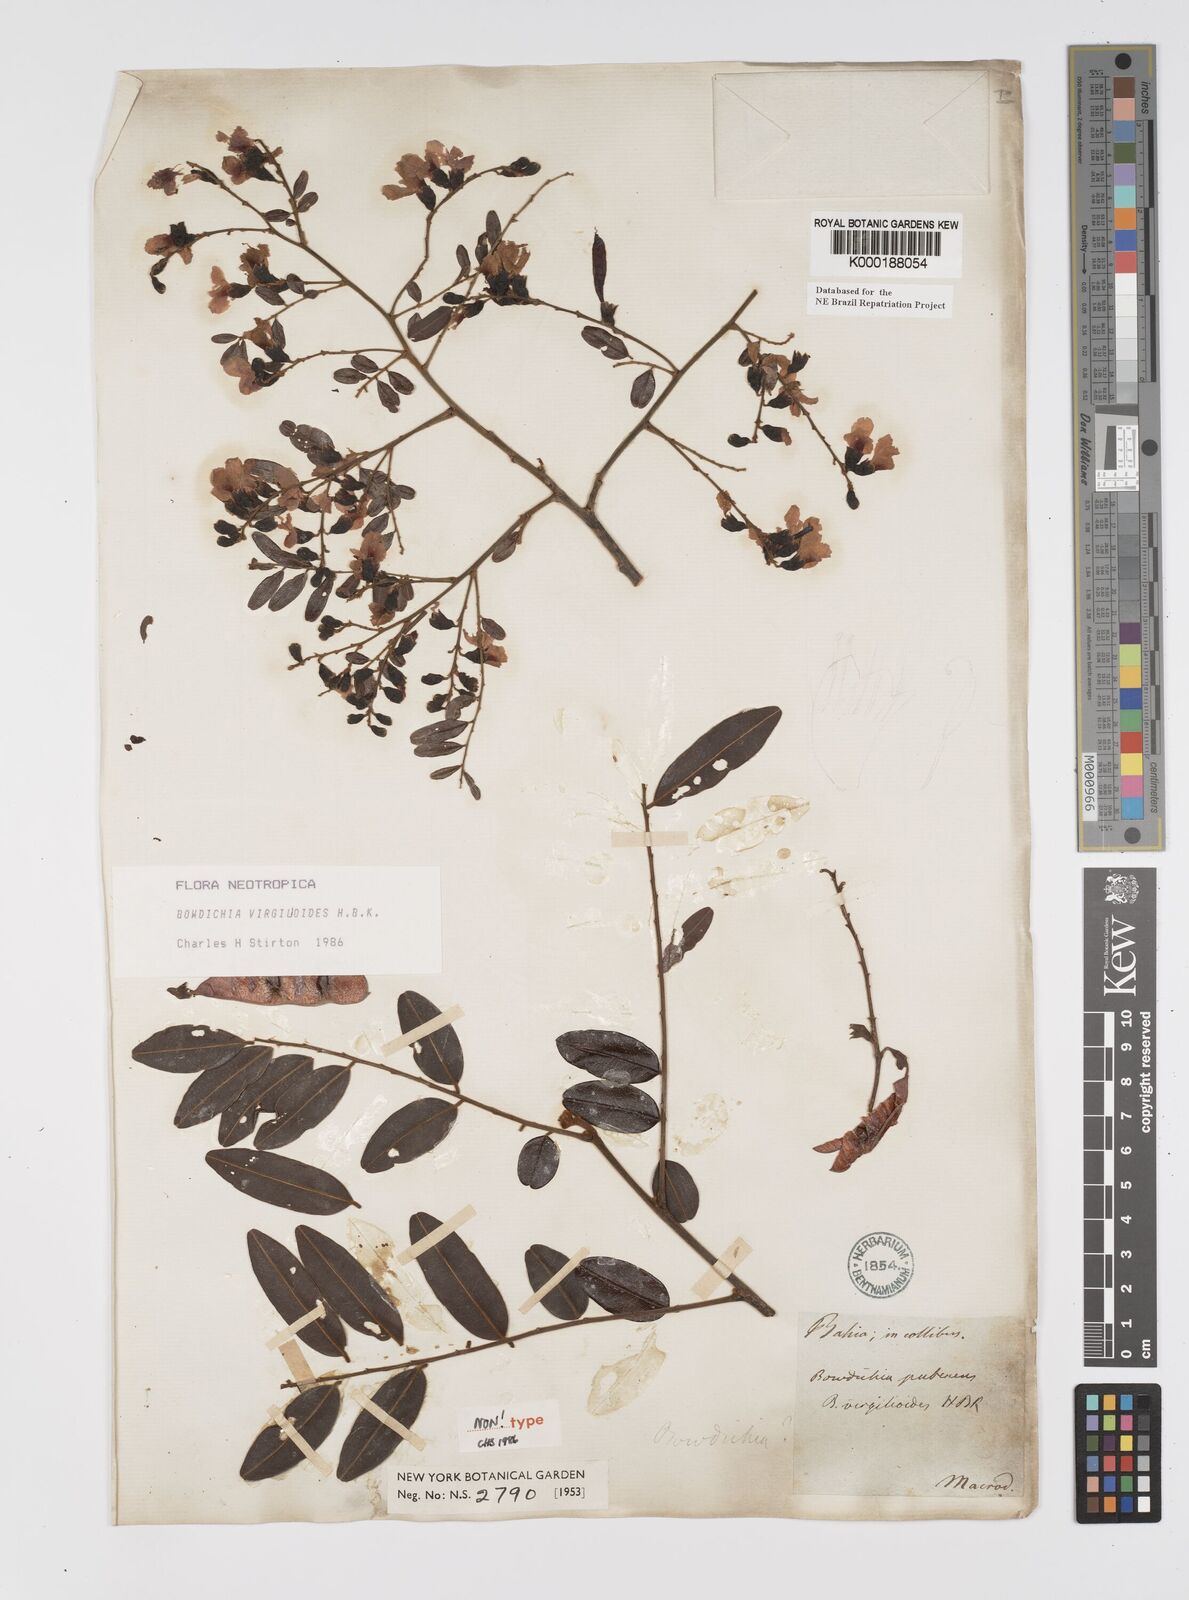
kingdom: Plantae
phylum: Tracheophyta
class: Magnoliopsida
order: Fabales
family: Fabaceae
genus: Bowdichia
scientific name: Bowdichia virgilioides
